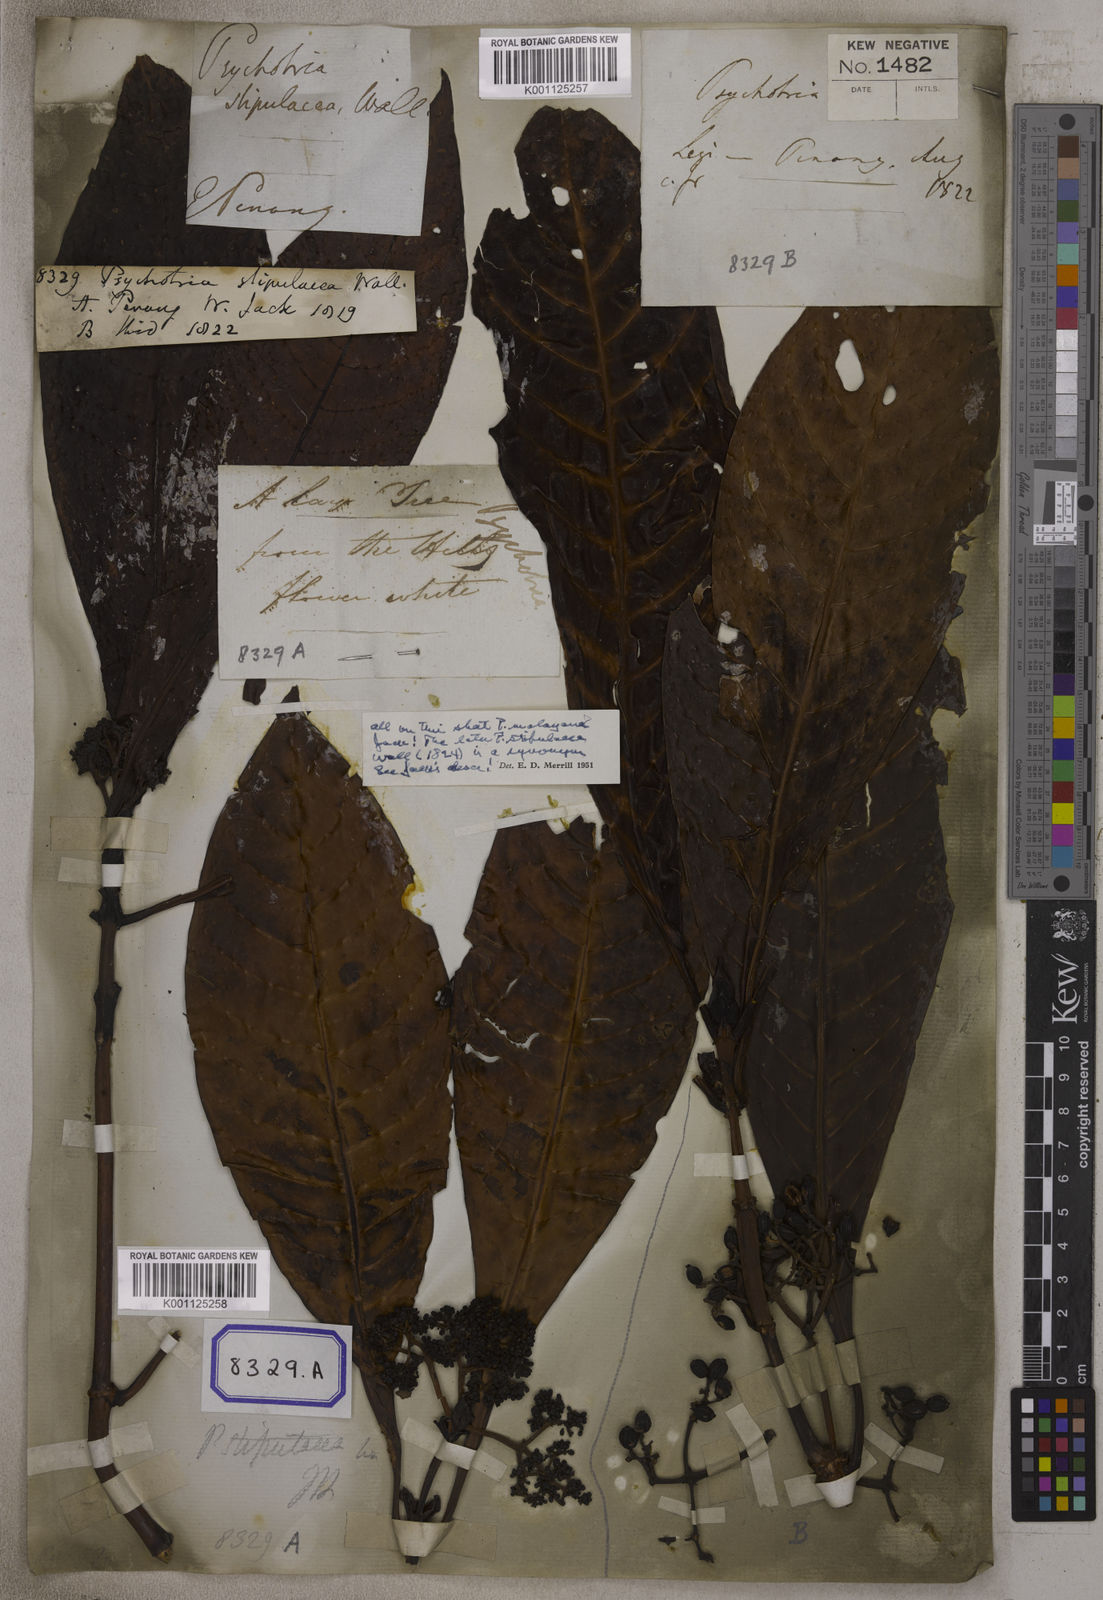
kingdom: Plantae
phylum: Tracheophyta
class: Magnoliopsida
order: Gentianales
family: Rubiaceae
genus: Psychotria
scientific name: Psychotria malayana
